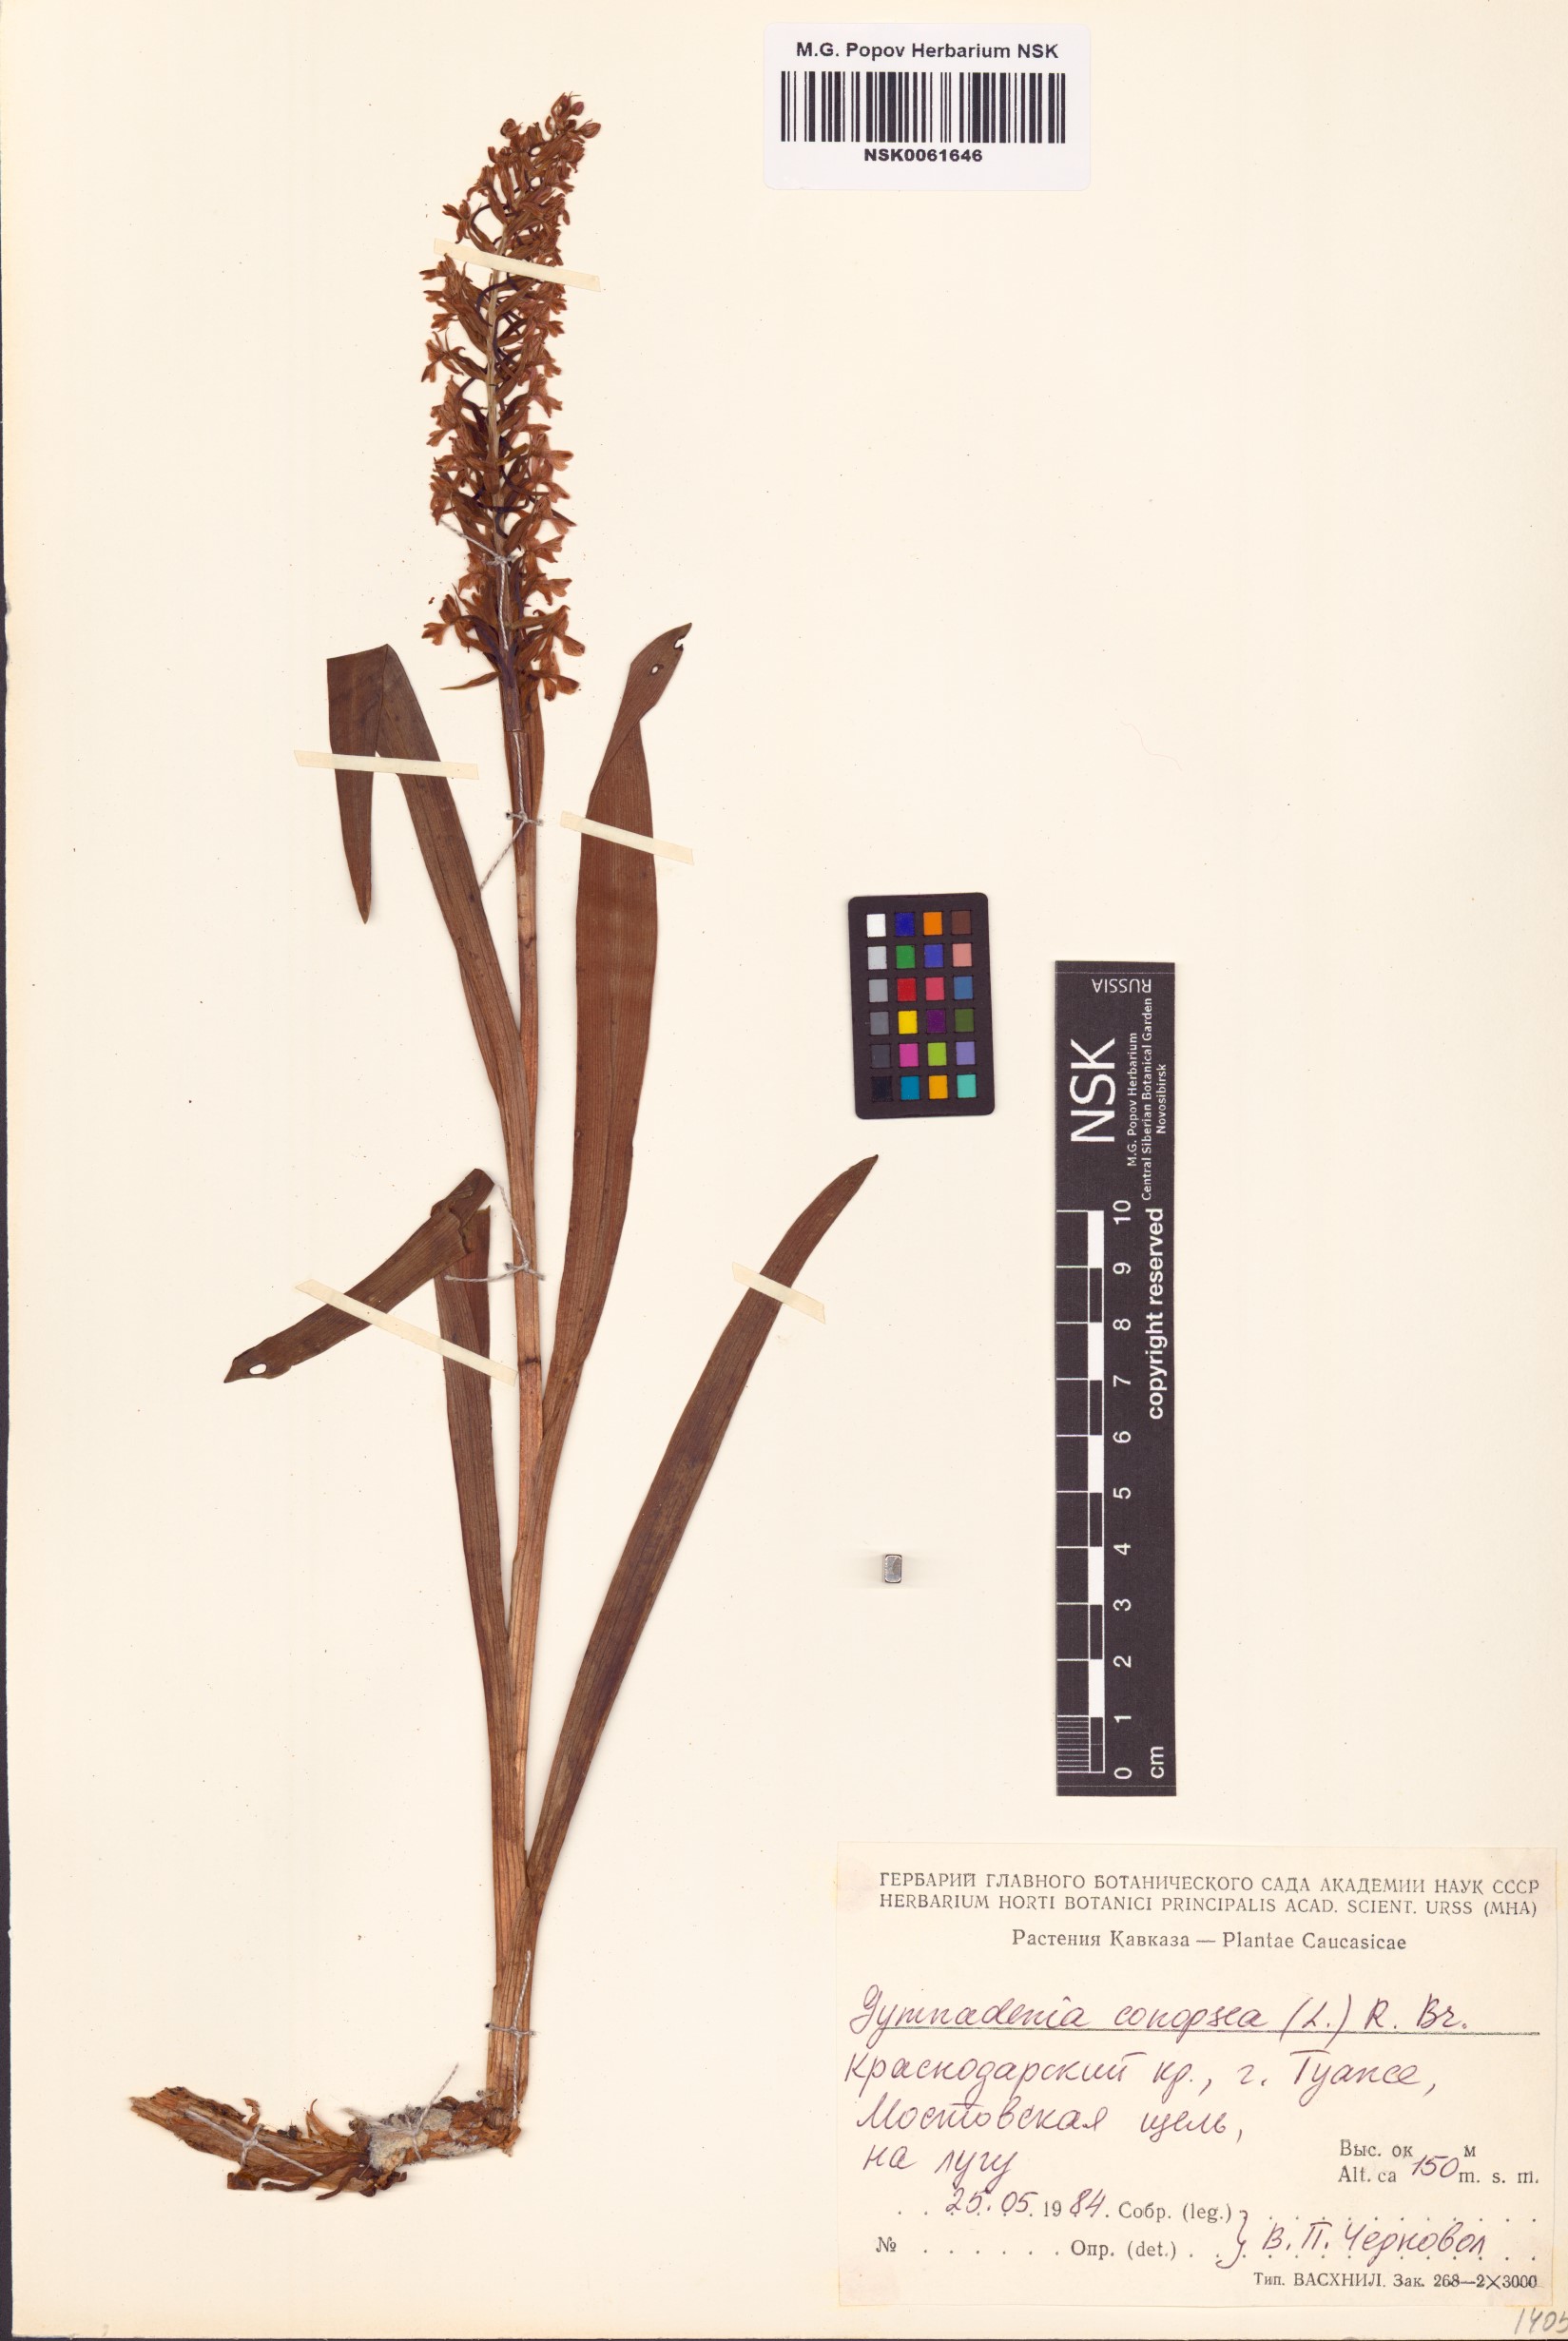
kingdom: Plantae
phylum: Tracheophyta
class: Liliopsida
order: Asparagales
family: Orchidaceae
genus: Gymnadenia
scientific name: Gymnadenia conopsea
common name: Fragrant orchid
